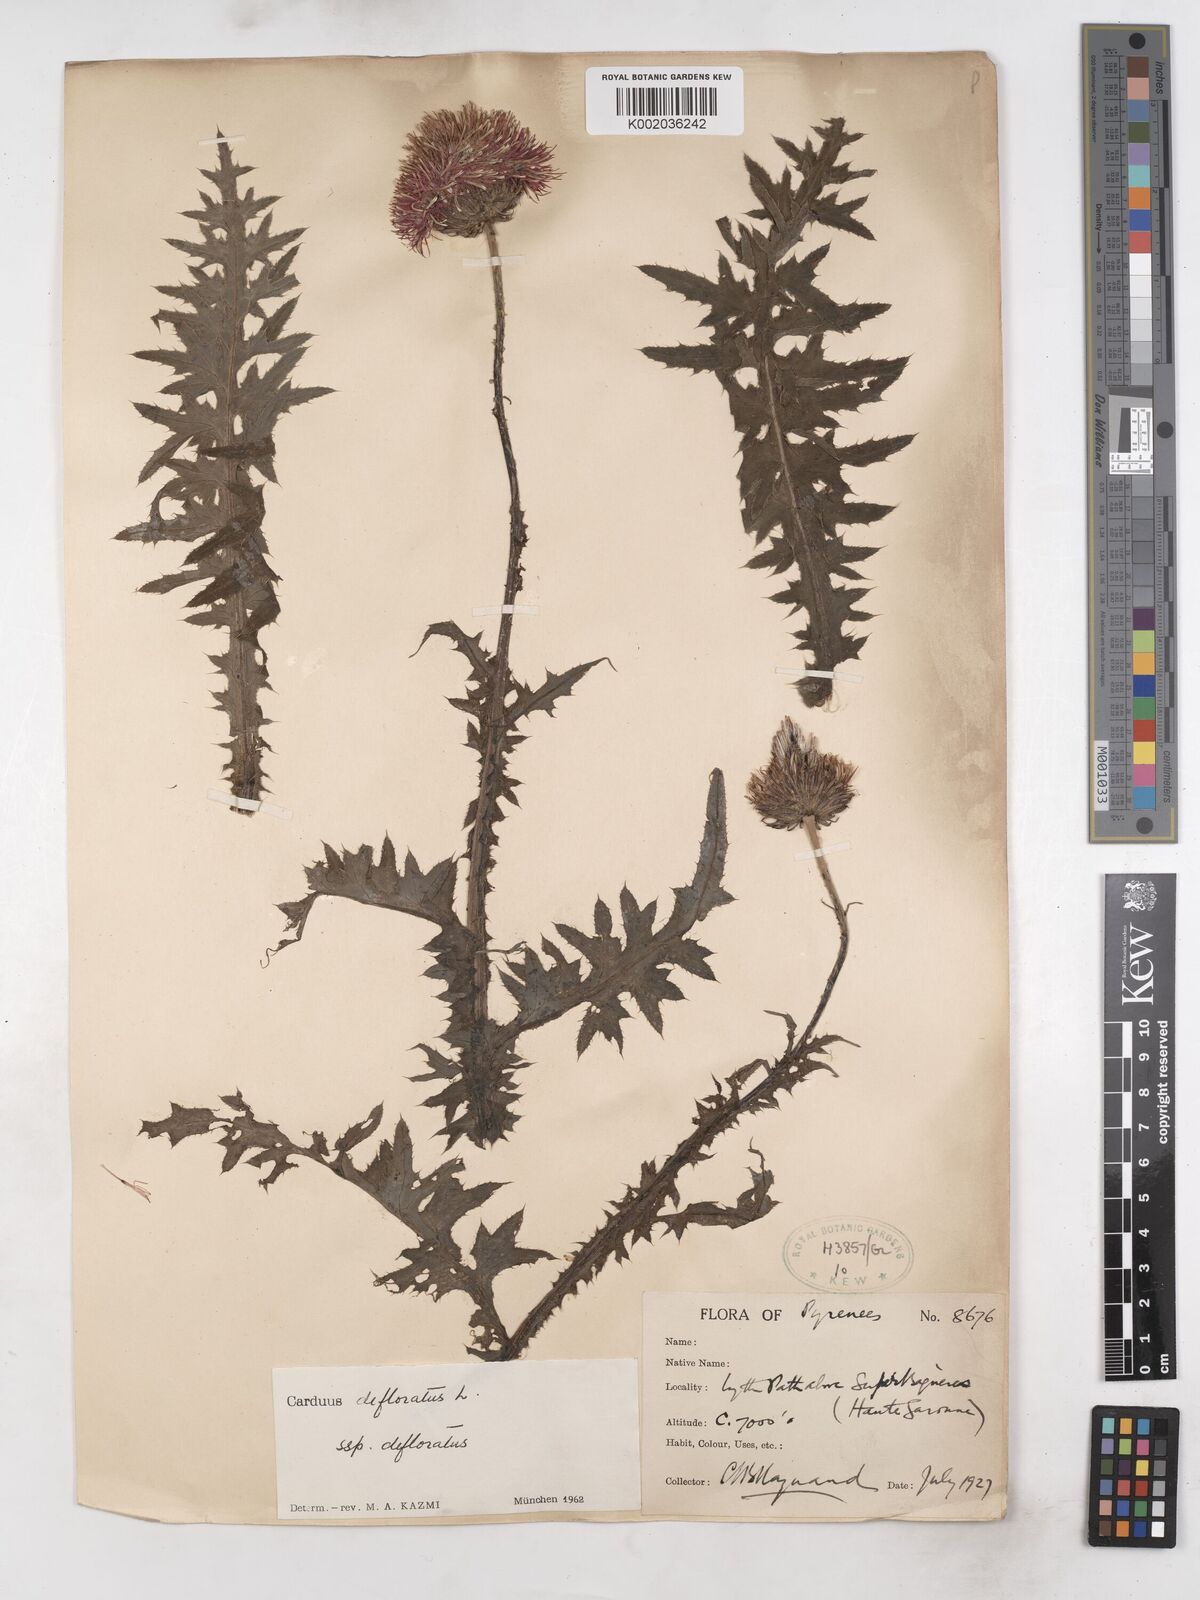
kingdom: Plantae
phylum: Tracheophyta
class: Magnoliopsida
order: Asterales
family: Asteraceae
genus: Carduus
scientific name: Carduus defloratus
